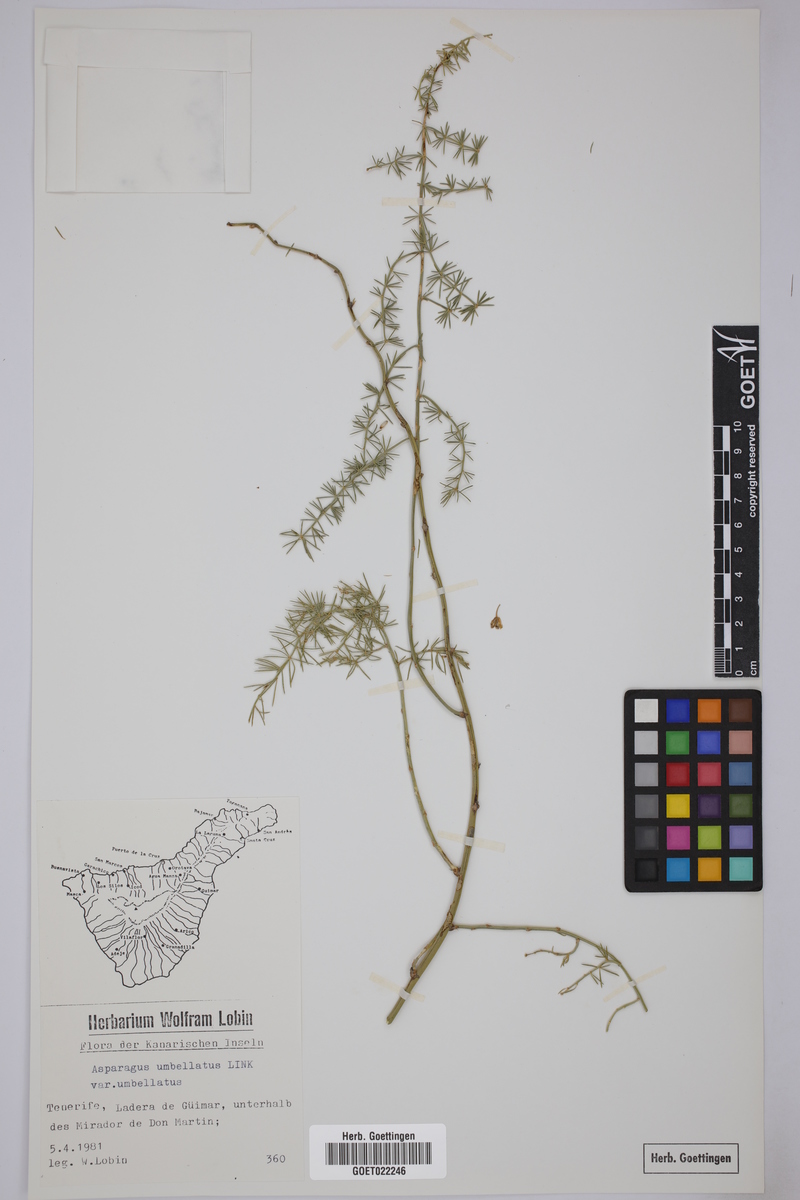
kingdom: Plantae
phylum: Tracheophyta
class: Liliopsida
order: Asparagales
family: Asparagaceae
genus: Asparagus
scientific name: Asparagus umbellatus
